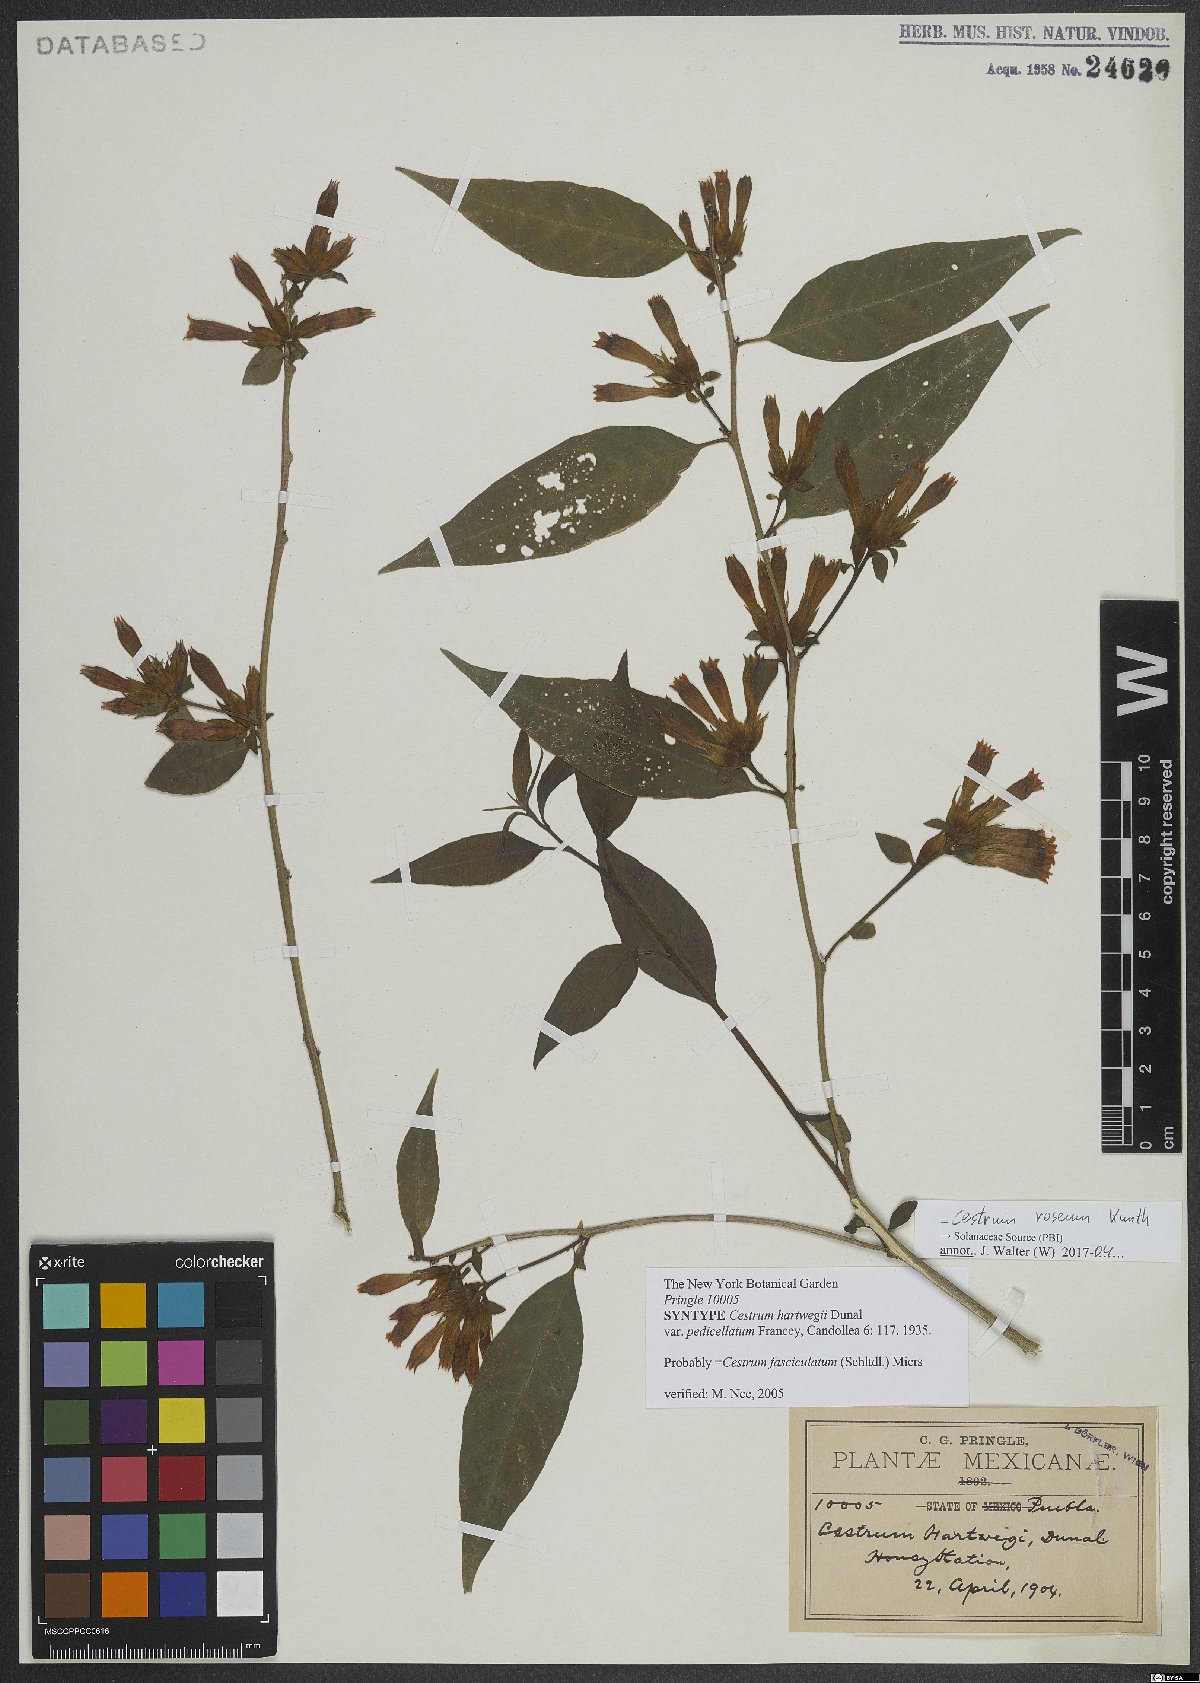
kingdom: Plantae
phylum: Tracheophyta
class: Magnoliopsida
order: Solanales
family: Solanaceae
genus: Cestrum
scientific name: Cestrum roseum
